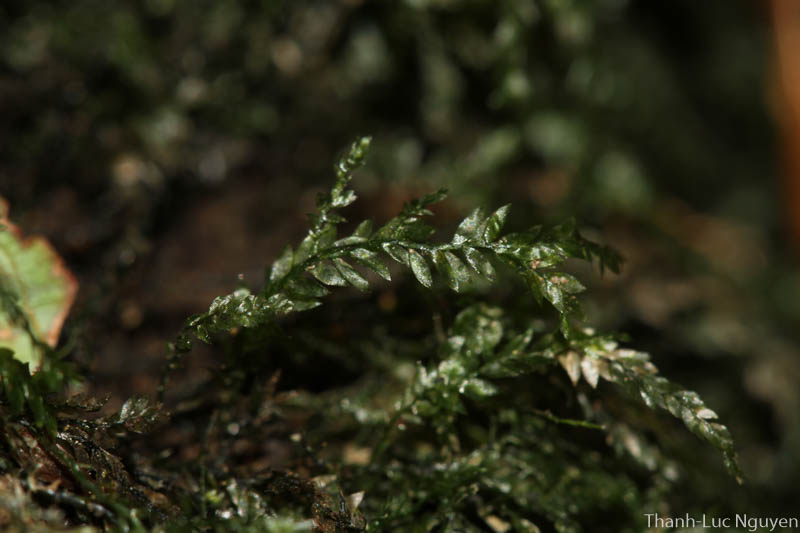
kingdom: Plantae
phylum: Bryophyta
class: Bryopsida
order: Hypnales
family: Orthostichellaceae
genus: Dixonia
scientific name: Dixonia
